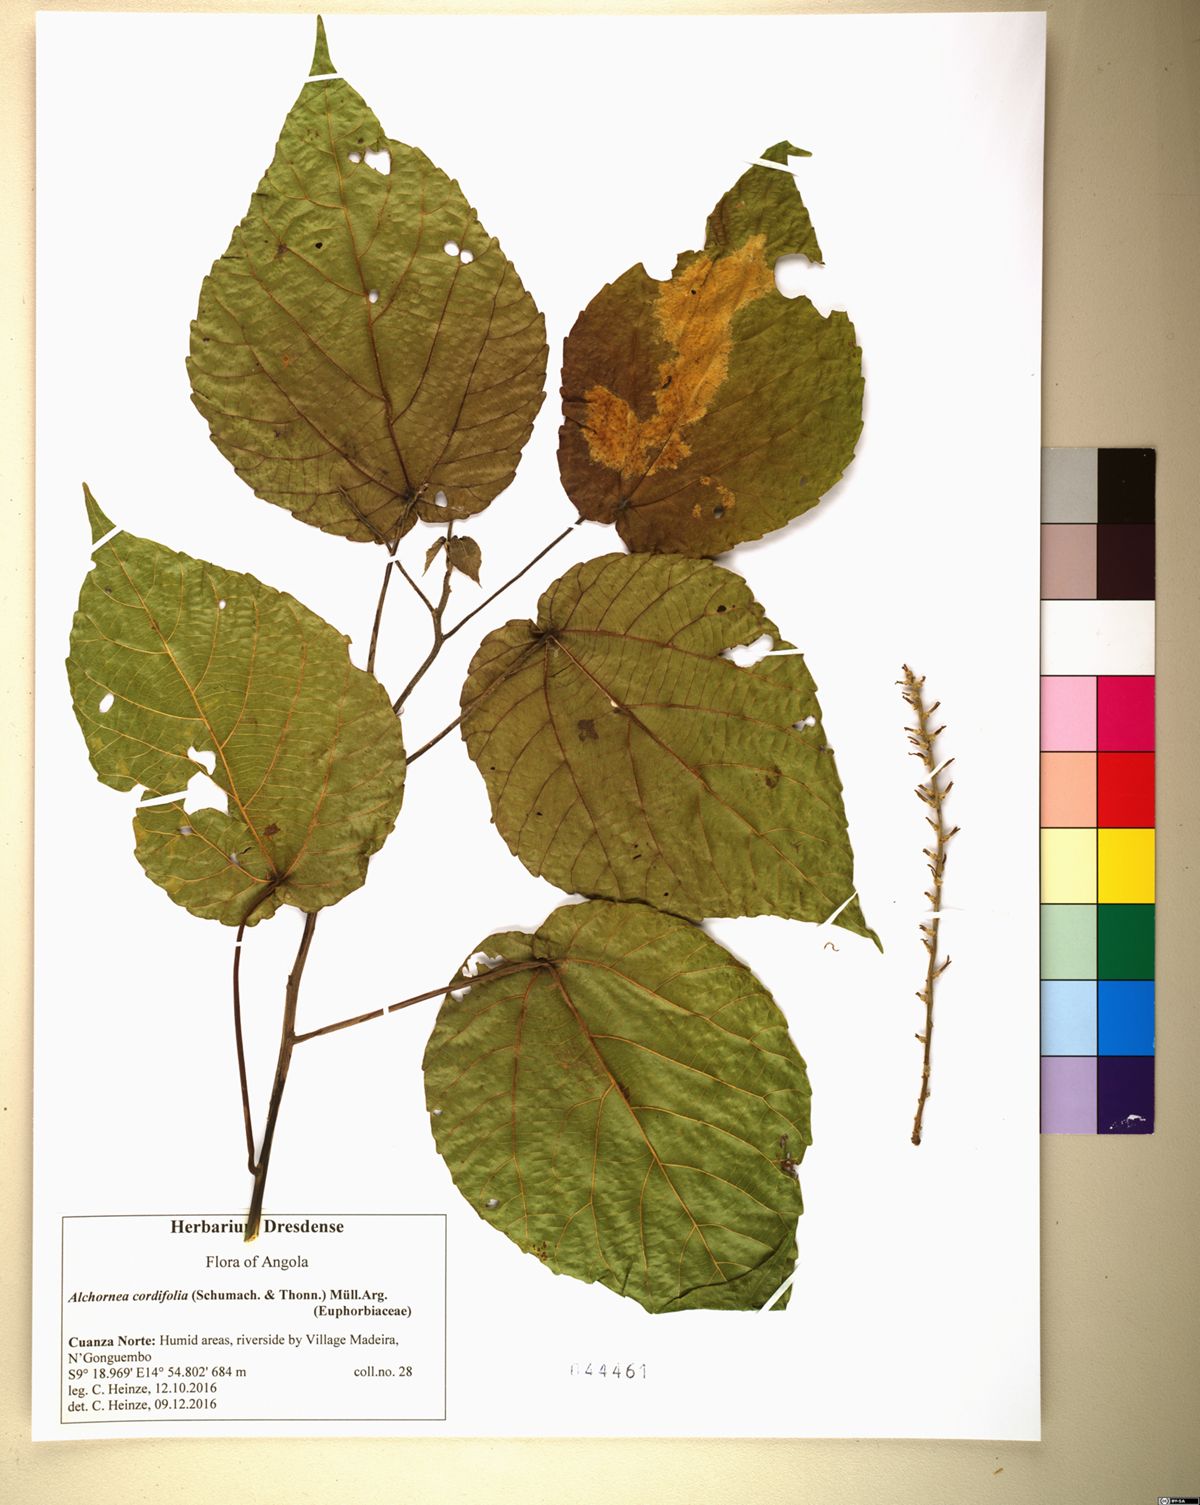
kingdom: Plantae
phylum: Tracheophyta
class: Magnoliopsida
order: Malpighiales
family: Euphorbiaceae
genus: Alchornea
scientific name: Alchornea cordifolia
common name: Christmasbush
